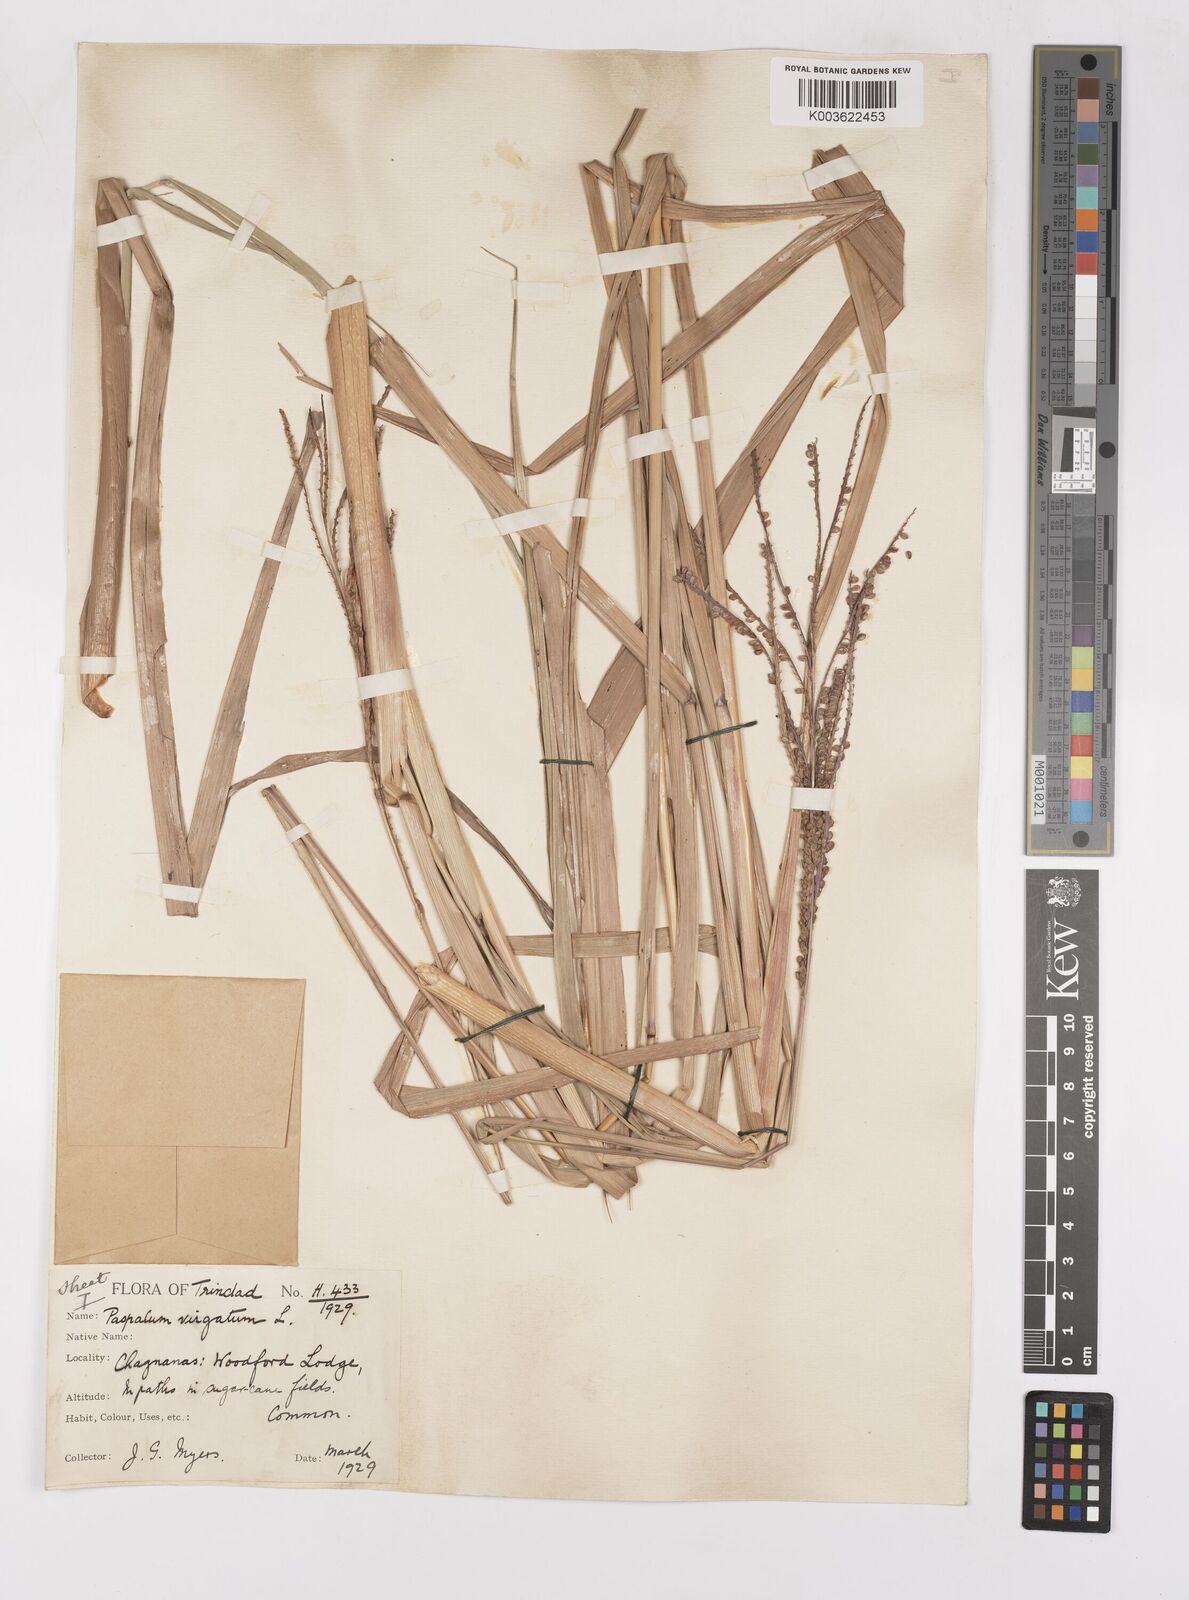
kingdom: Plantae
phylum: Tracheophyta
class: Liliopsida
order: Poales
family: Poaceae
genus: Paspalum
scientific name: Paspalum virgatum
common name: Talquezal
